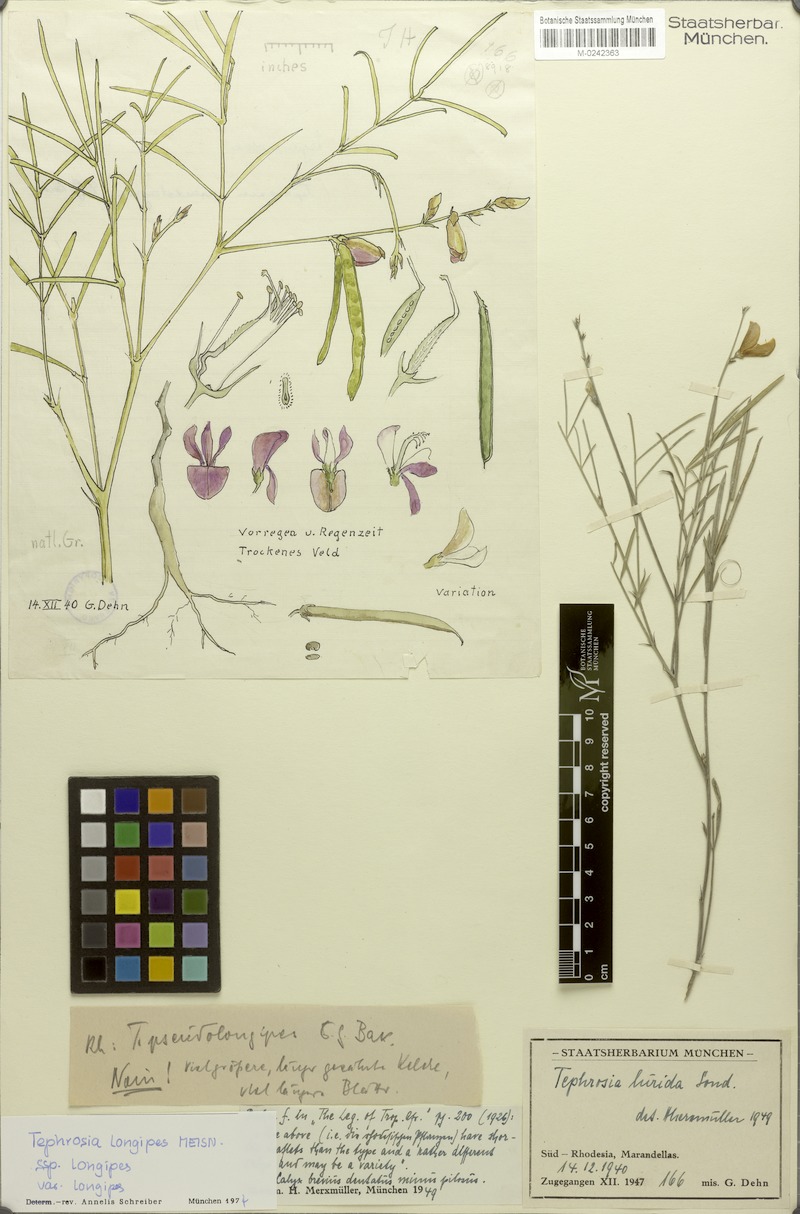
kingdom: Plantae
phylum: Tracheophyta
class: Magnoliopsida
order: Fabales
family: Fabaceae
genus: Tephrosia
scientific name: Tephrosia lurida
